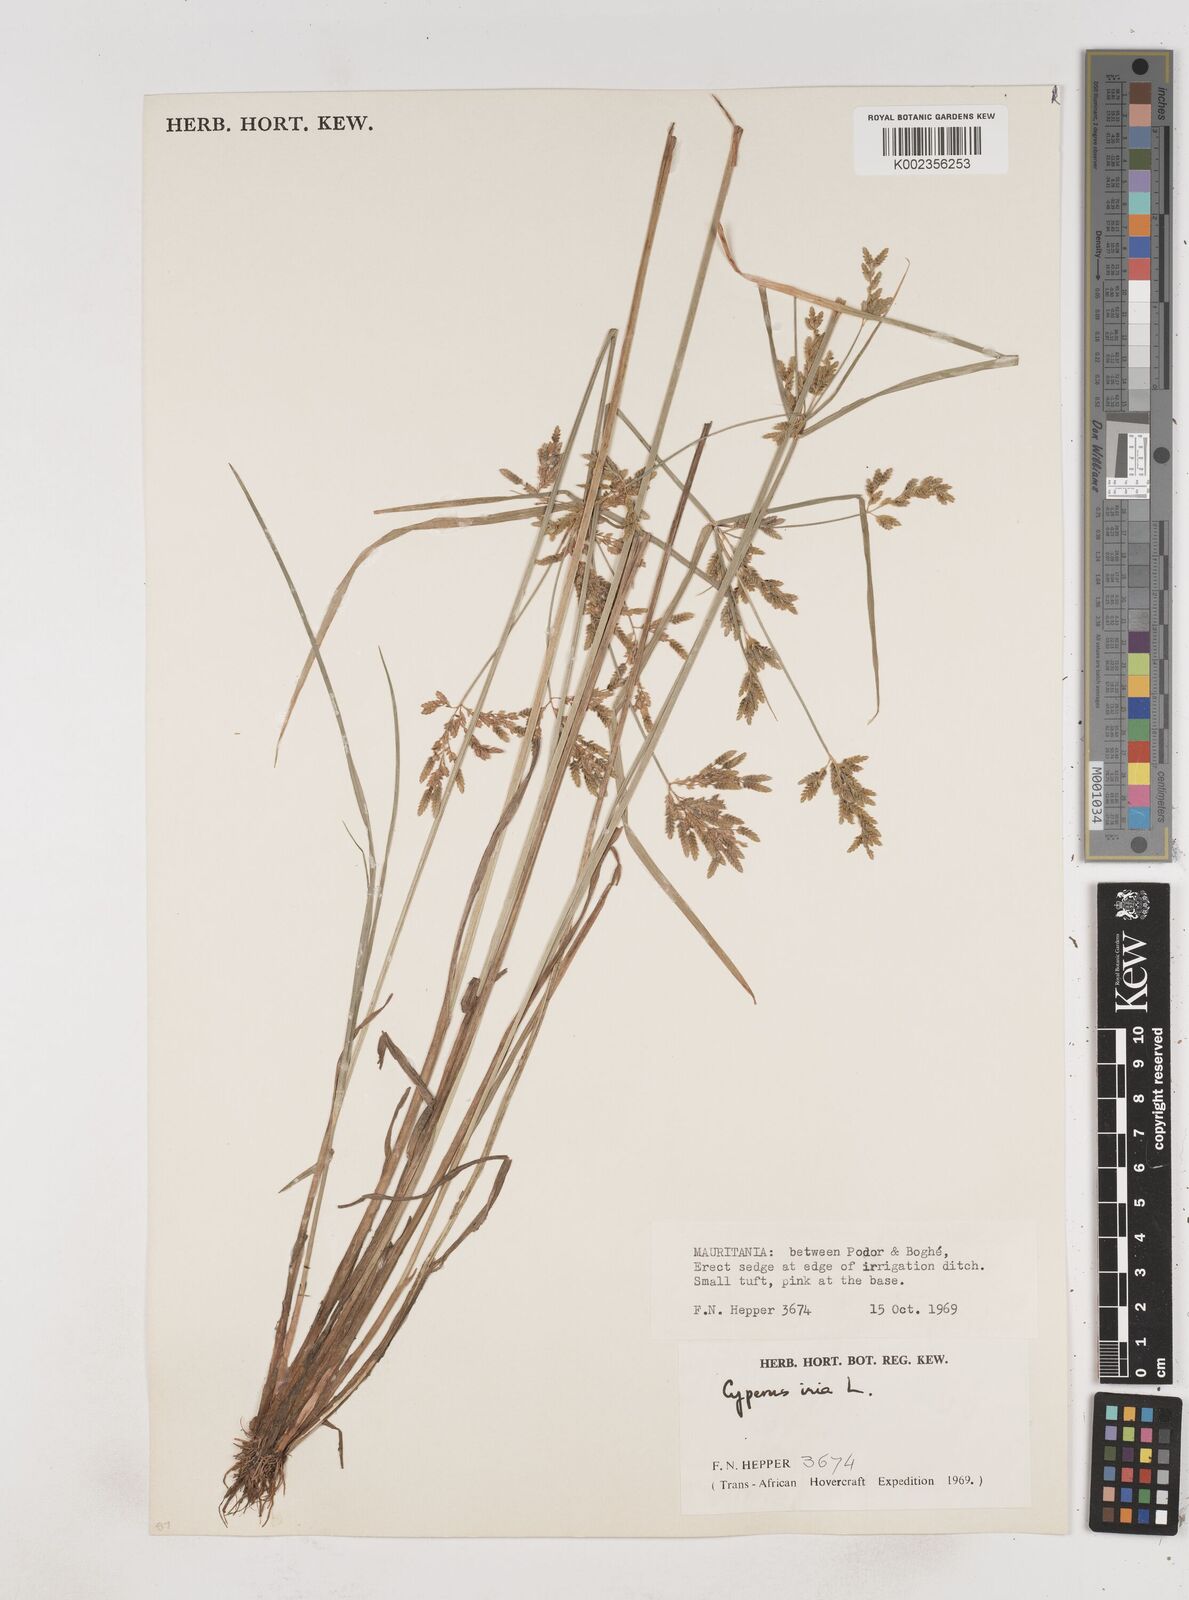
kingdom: Plantae
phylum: Tracheophyta
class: Liliopsida
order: Poales
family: Cyperaceae
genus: Cyperus
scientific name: Cyperus iria
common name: Ricefield flatsedge
